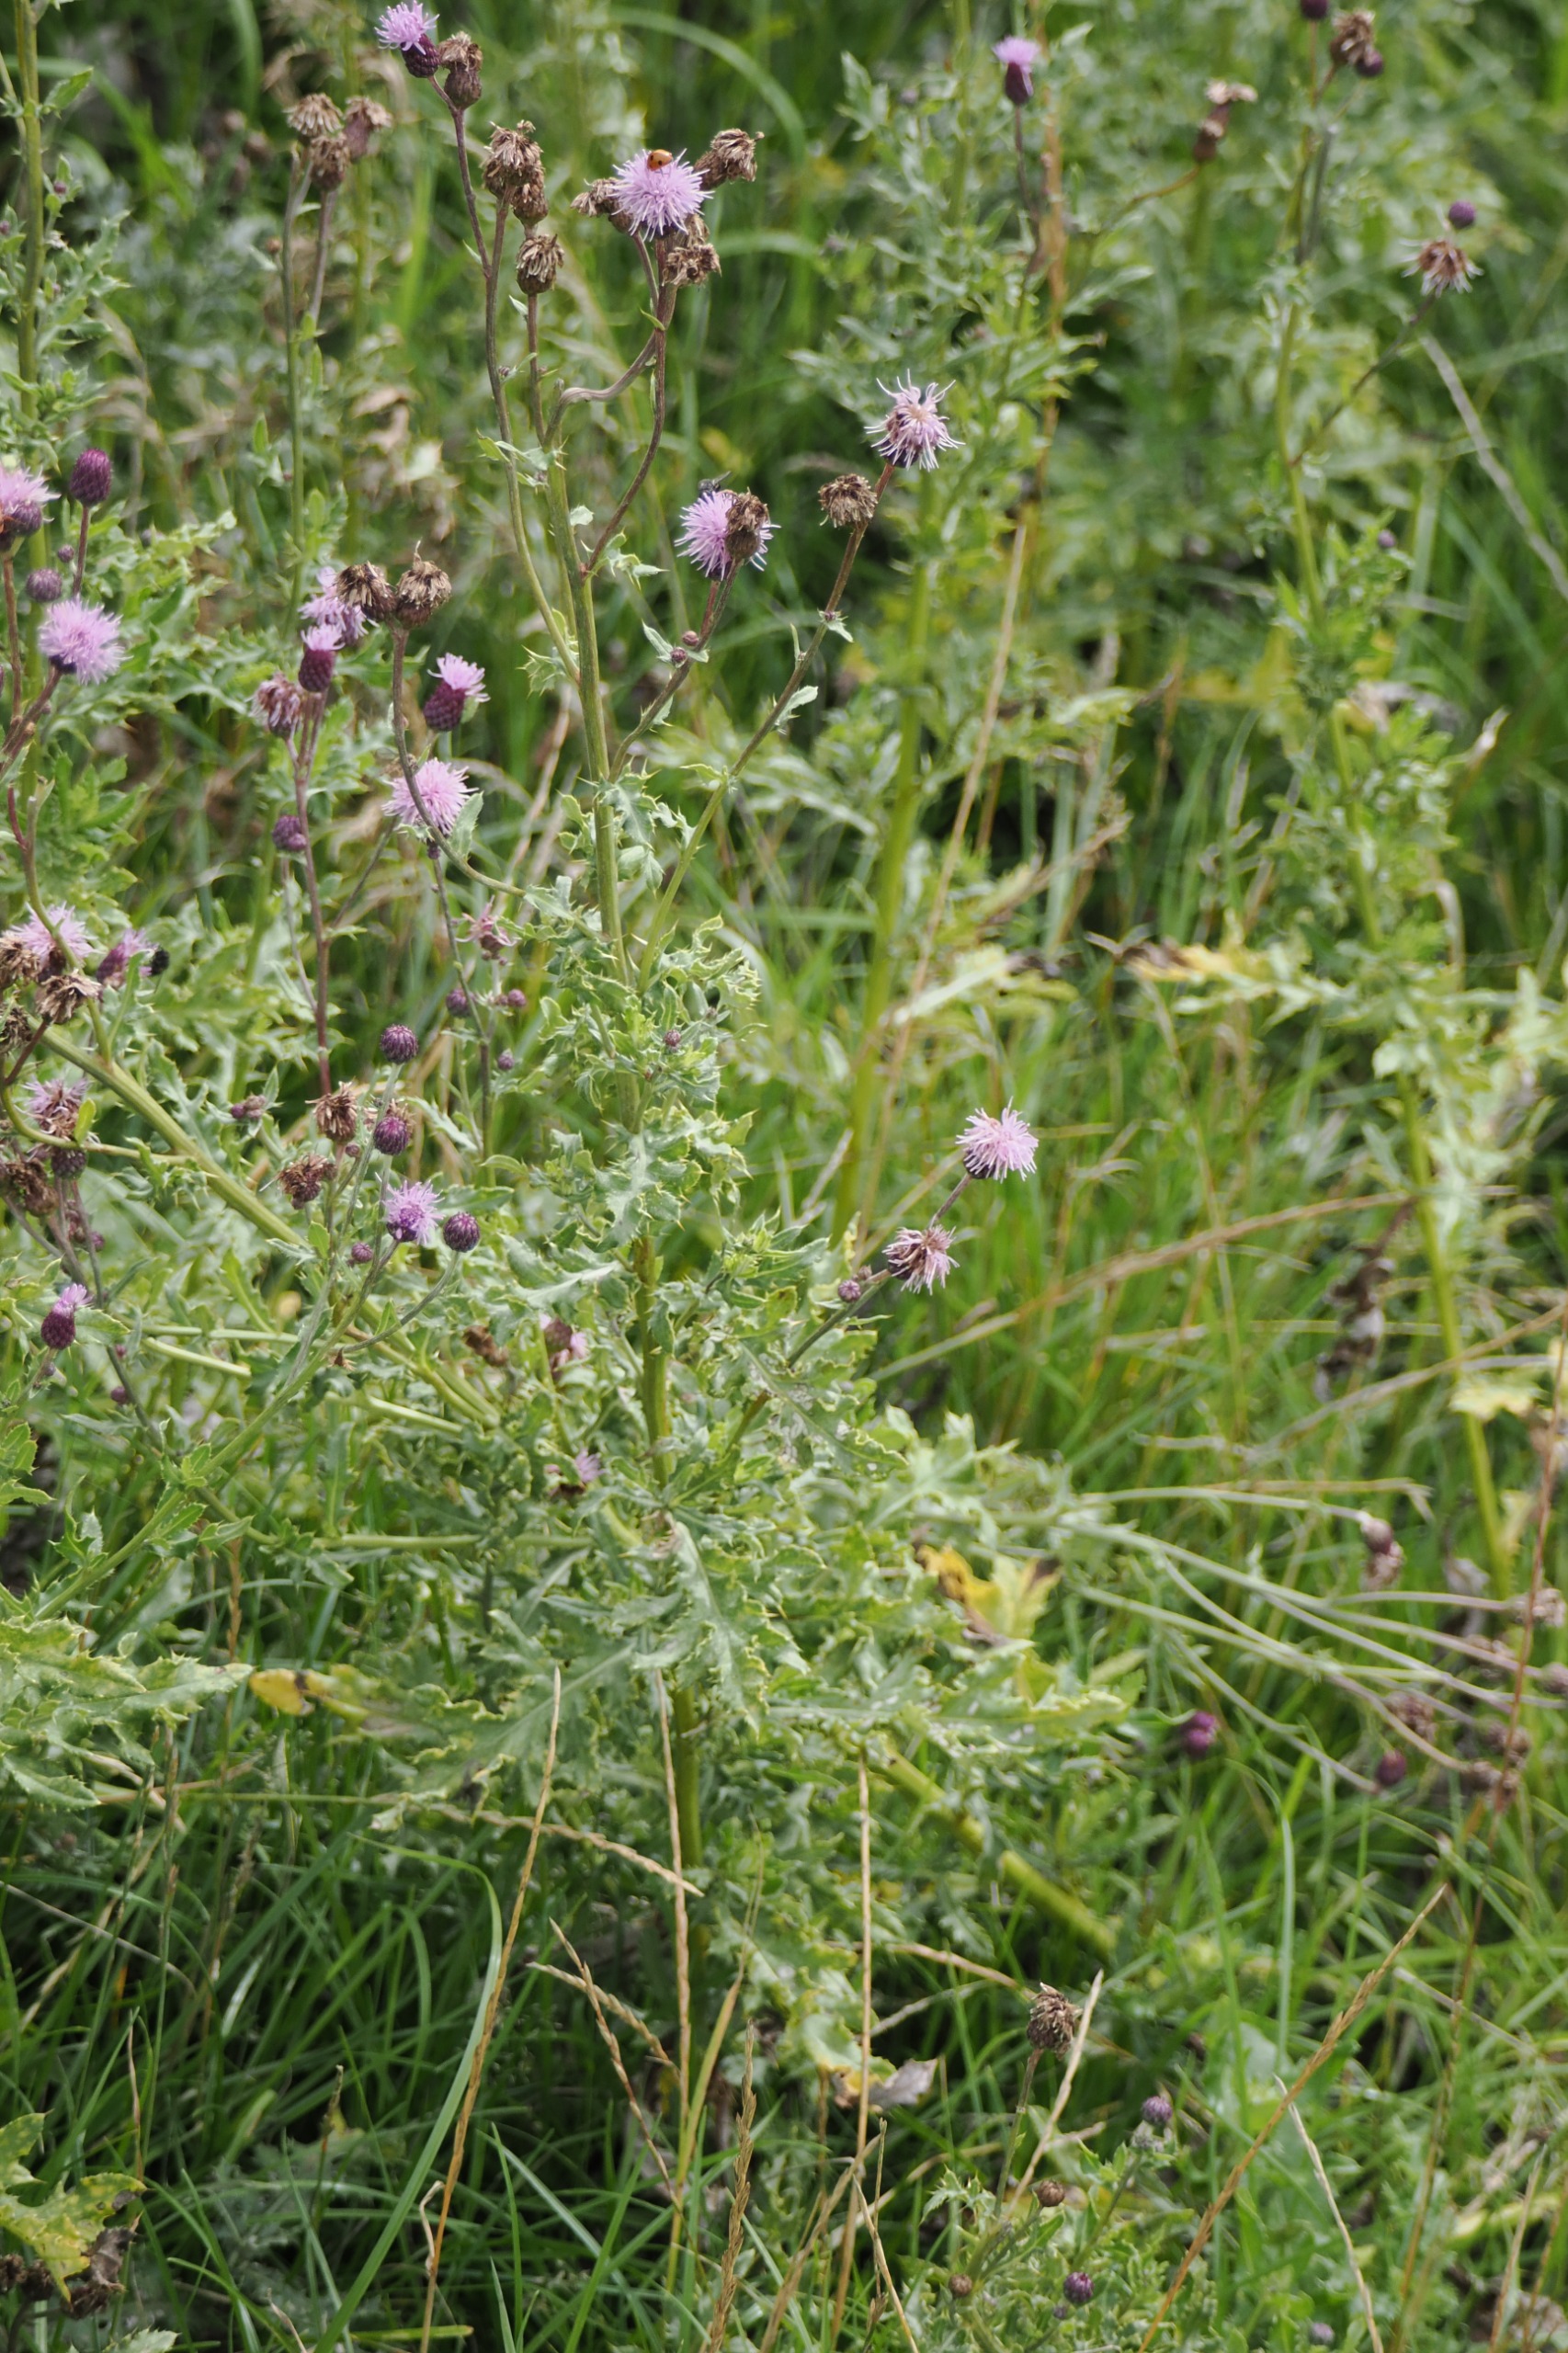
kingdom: Plantae
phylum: Tracheophyta
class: Magnoliopsida
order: Asterales
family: Asteraceae
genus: Cirsium
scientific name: Cirsium arvense
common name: Ager-tidsel
